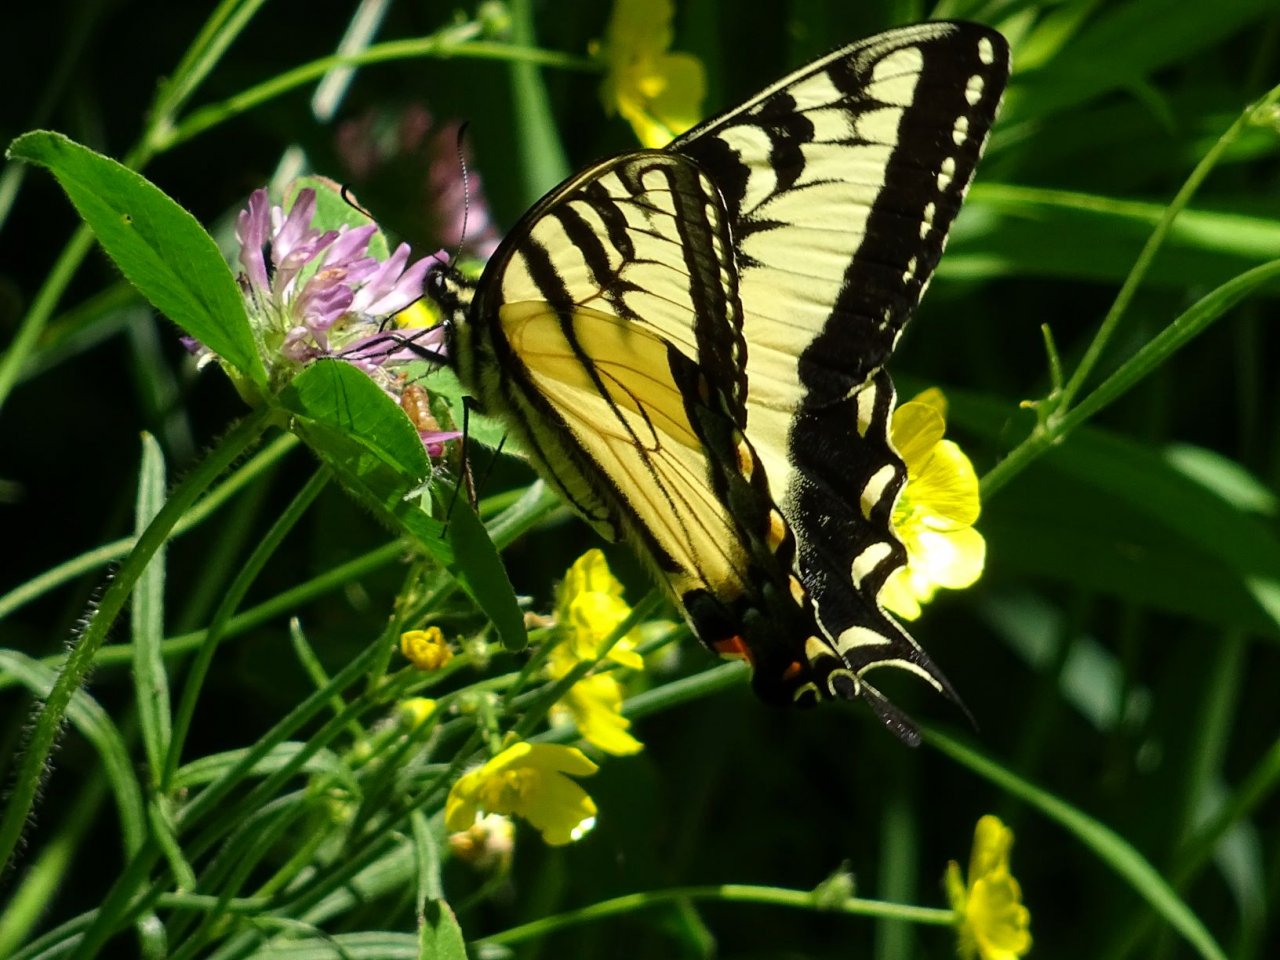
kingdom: Animalia
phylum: Arthropoda
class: Insecta
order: Lepidoptera
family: Papilionidae
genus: Pterourus
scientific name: Pterourus glaucus
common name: Eastern Tiger Swallowtail
